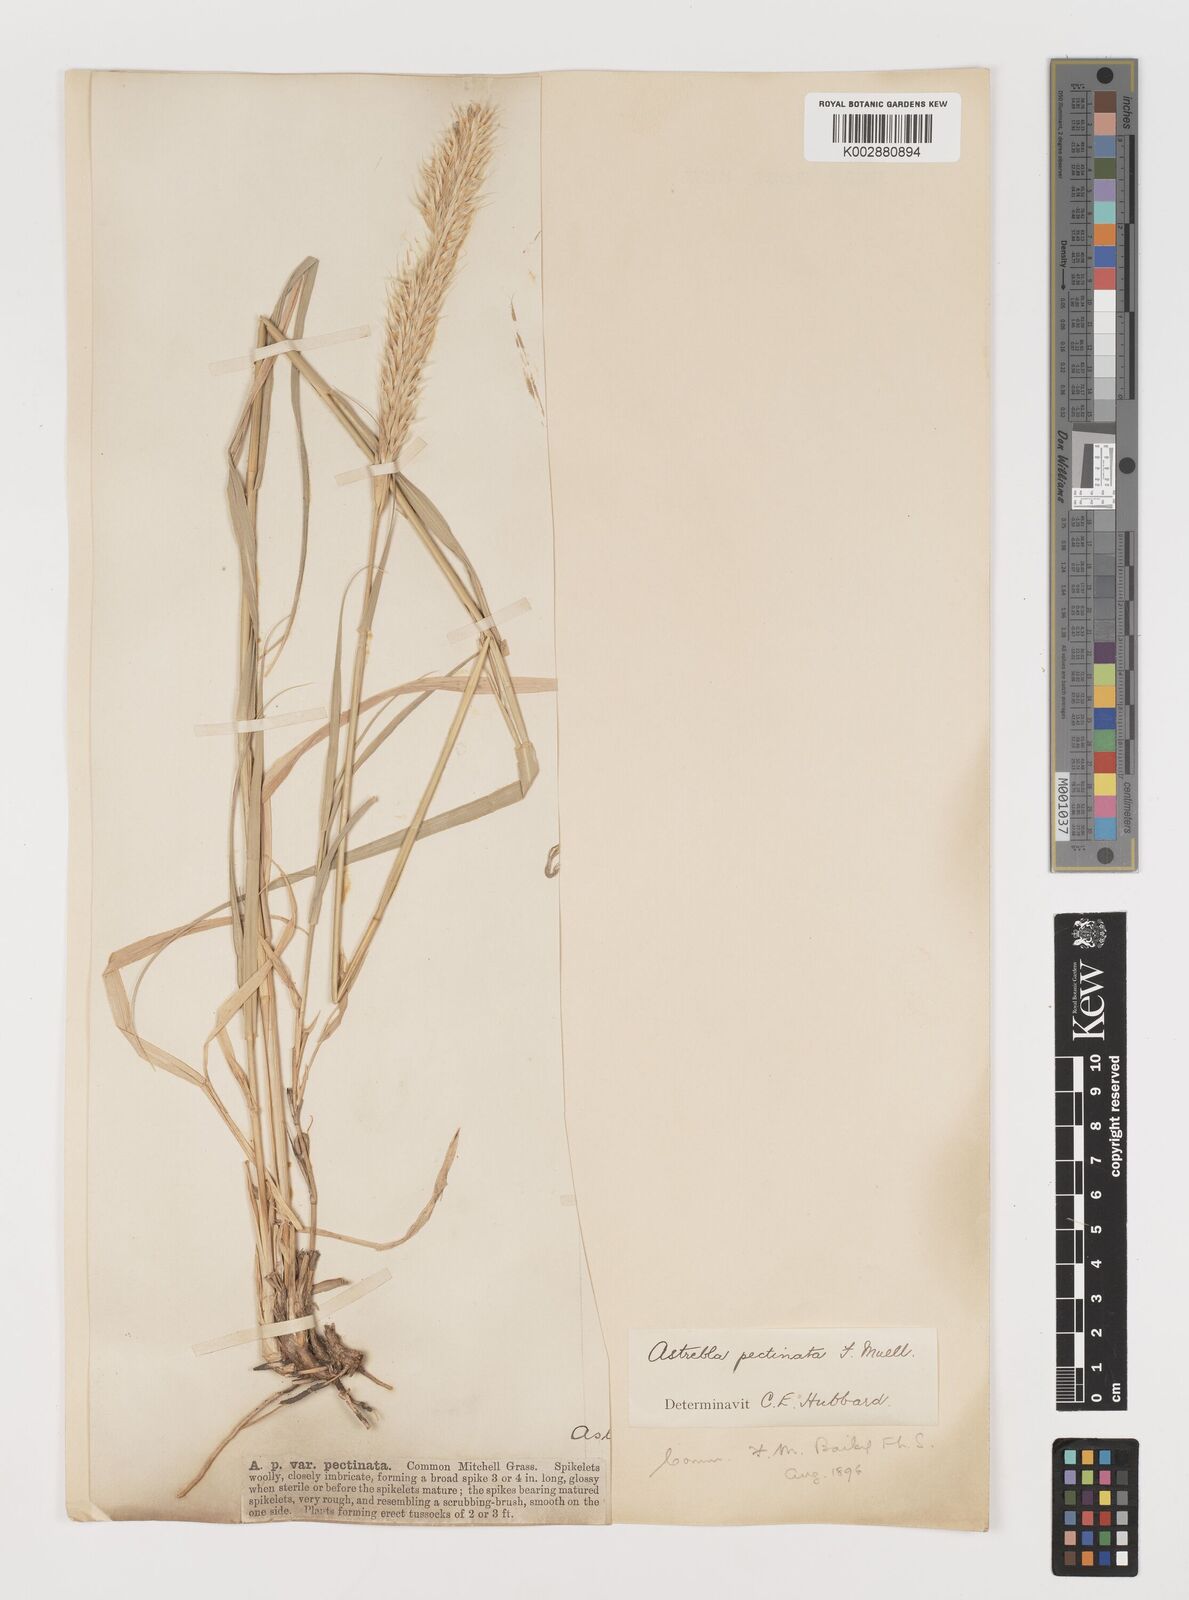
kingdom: Plantae
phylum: Tracheophyta
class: Liliopsida
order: Poales
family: Poaceae
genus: Astrebla
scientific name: Astrebla pectinata
